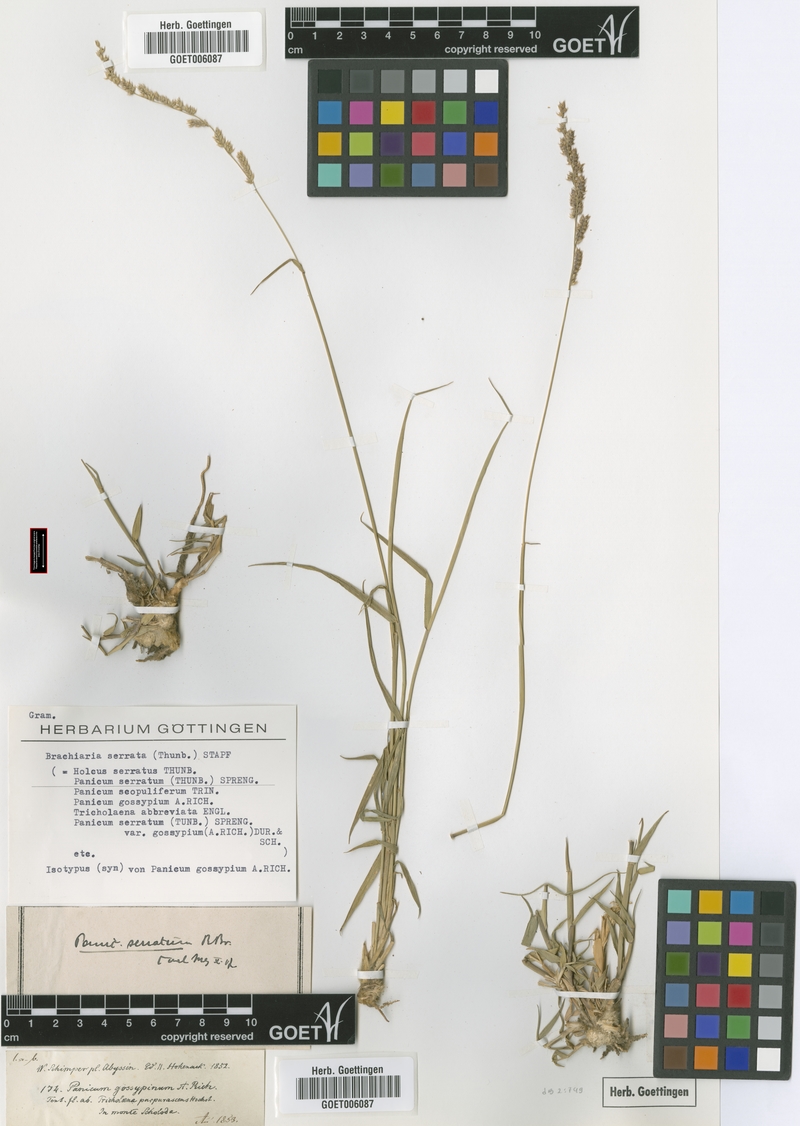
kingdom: Plantae
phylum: Tracheophyta
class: Liliopsida
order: Poales
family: Poaceae
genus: Urochloa
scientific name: Urochloa serrata
